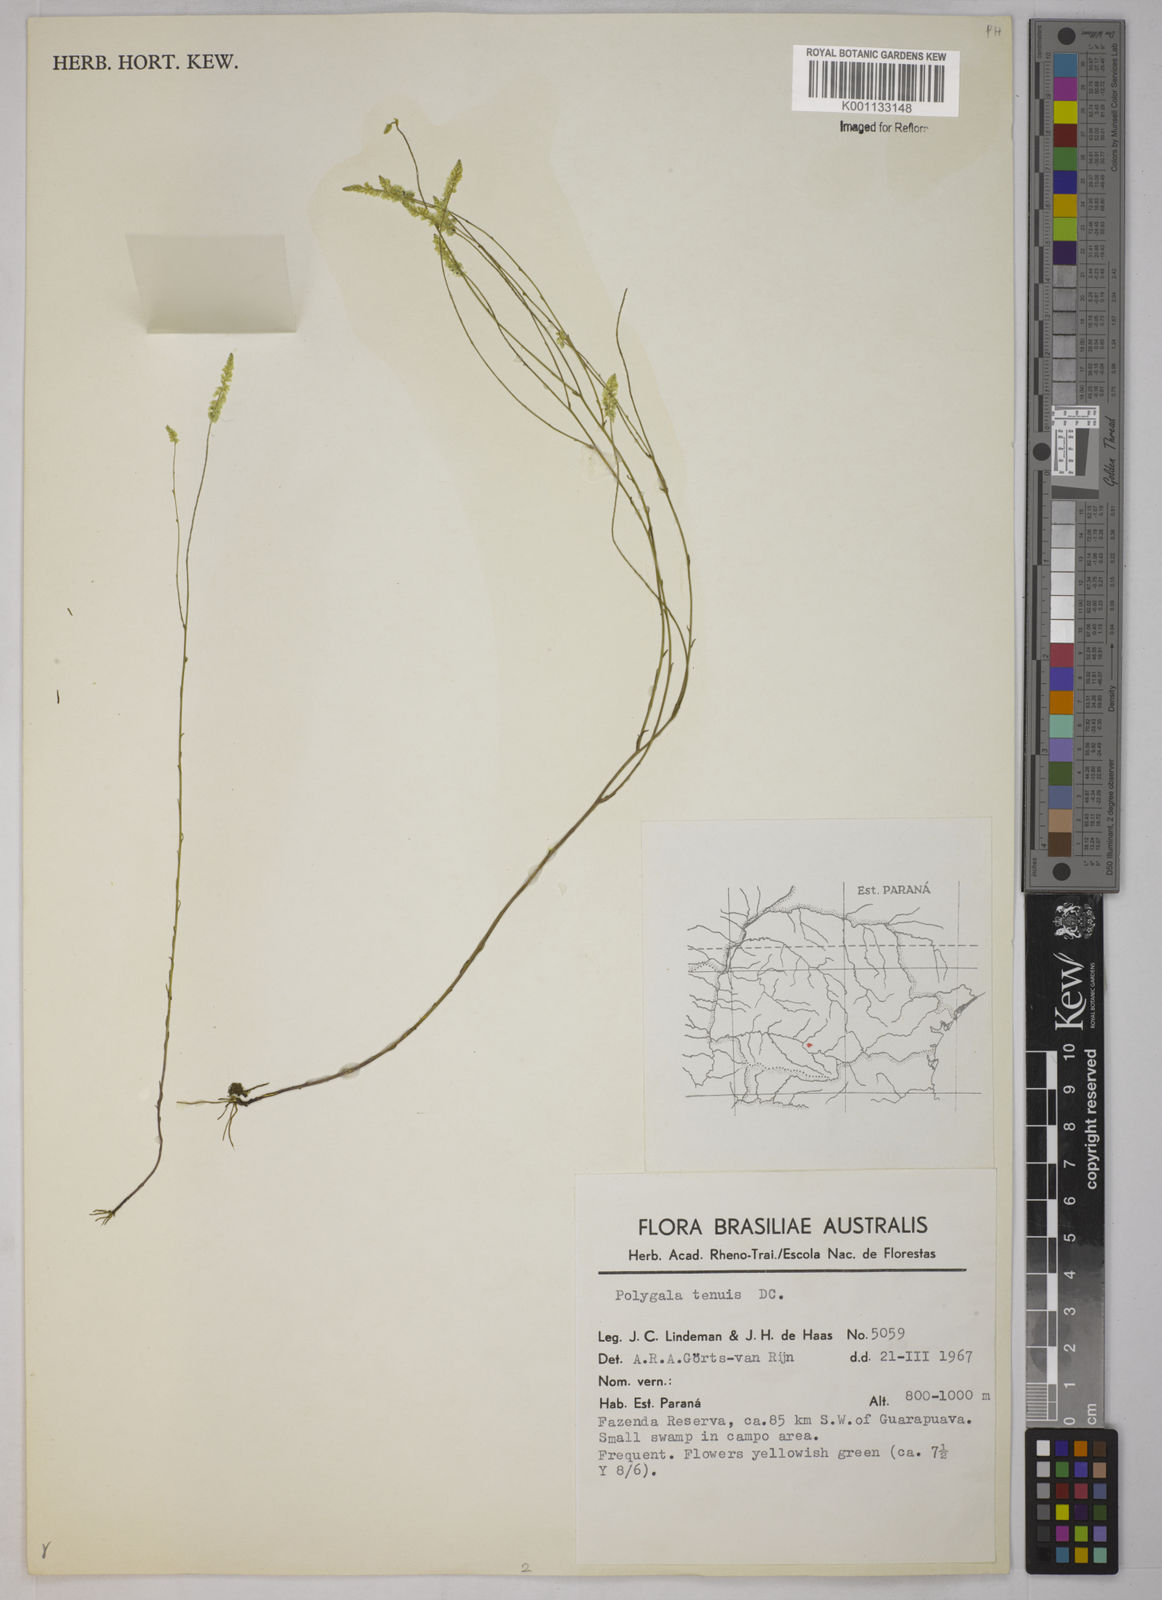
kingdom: Plantae
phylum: Tracheophyta
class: Magnoliopsida
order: Fabales
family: Polygalaceae
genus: Polygala
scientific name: Polygala tenuis
